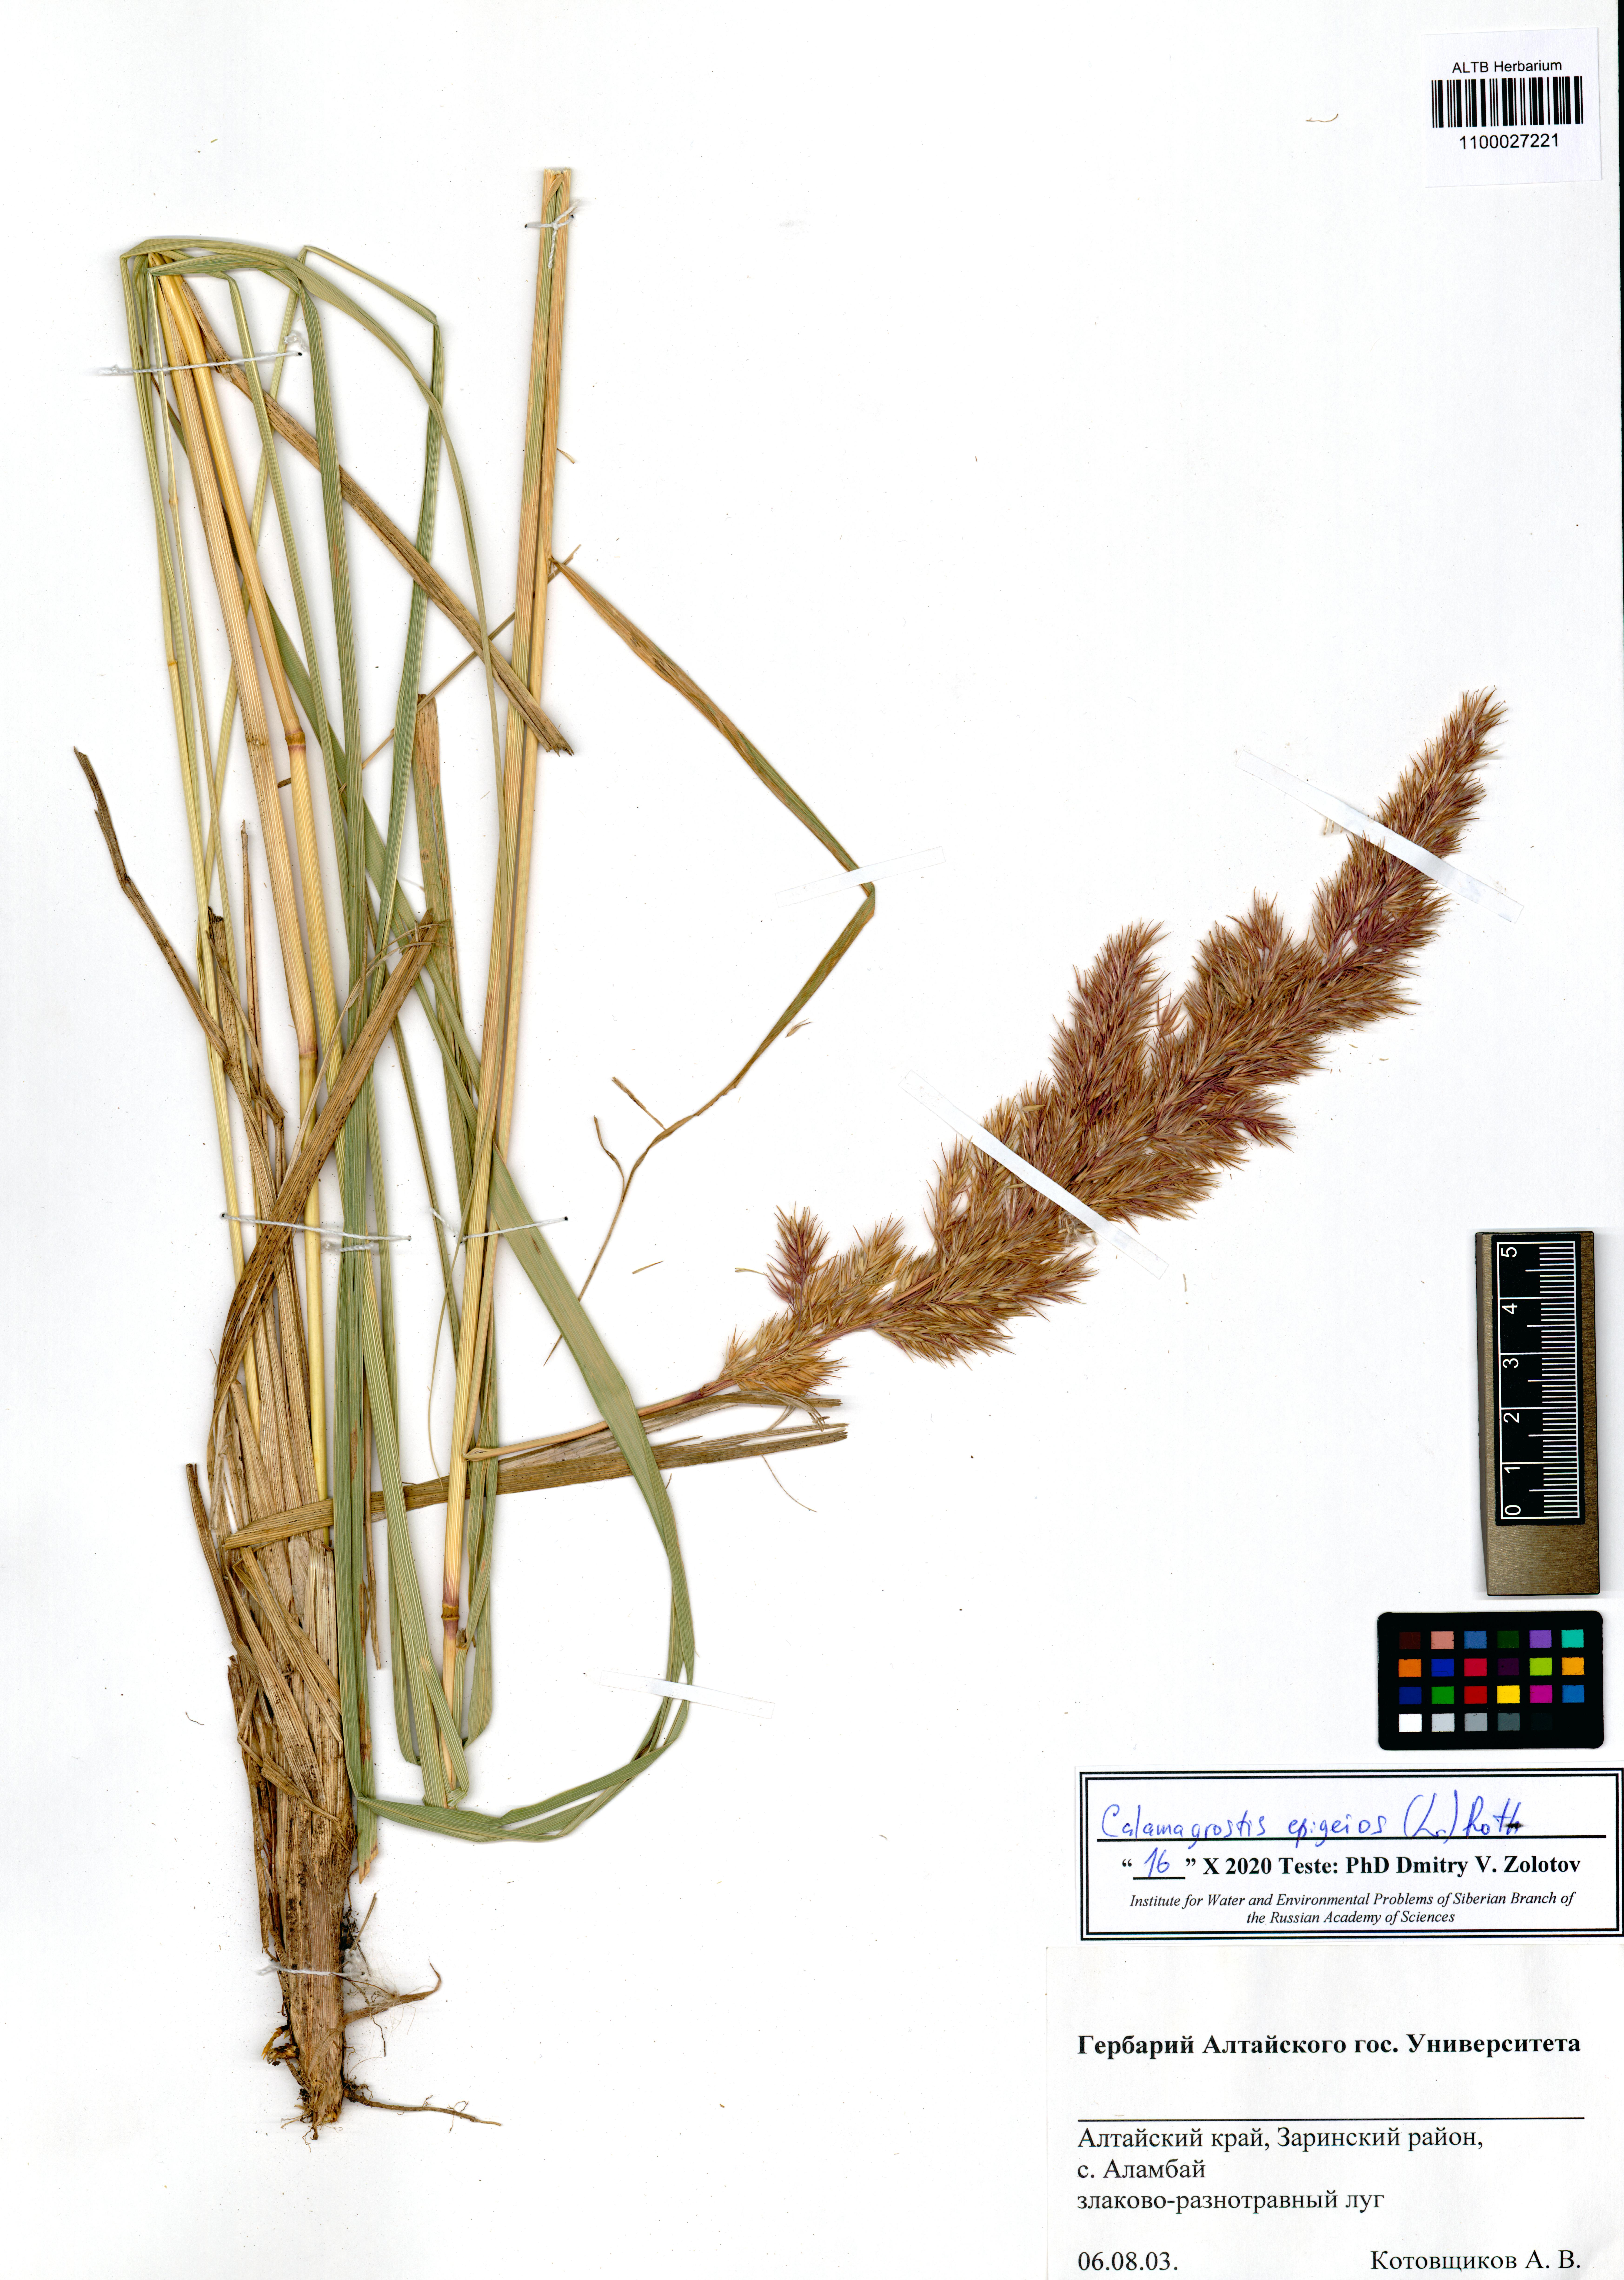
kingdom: Plantae
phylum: Tracheophyta
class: Magnoliopsida
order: Lamiales
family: Plantaginaceae
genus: Veronica
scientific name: Veronica longifolia
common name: Garden speedwell
